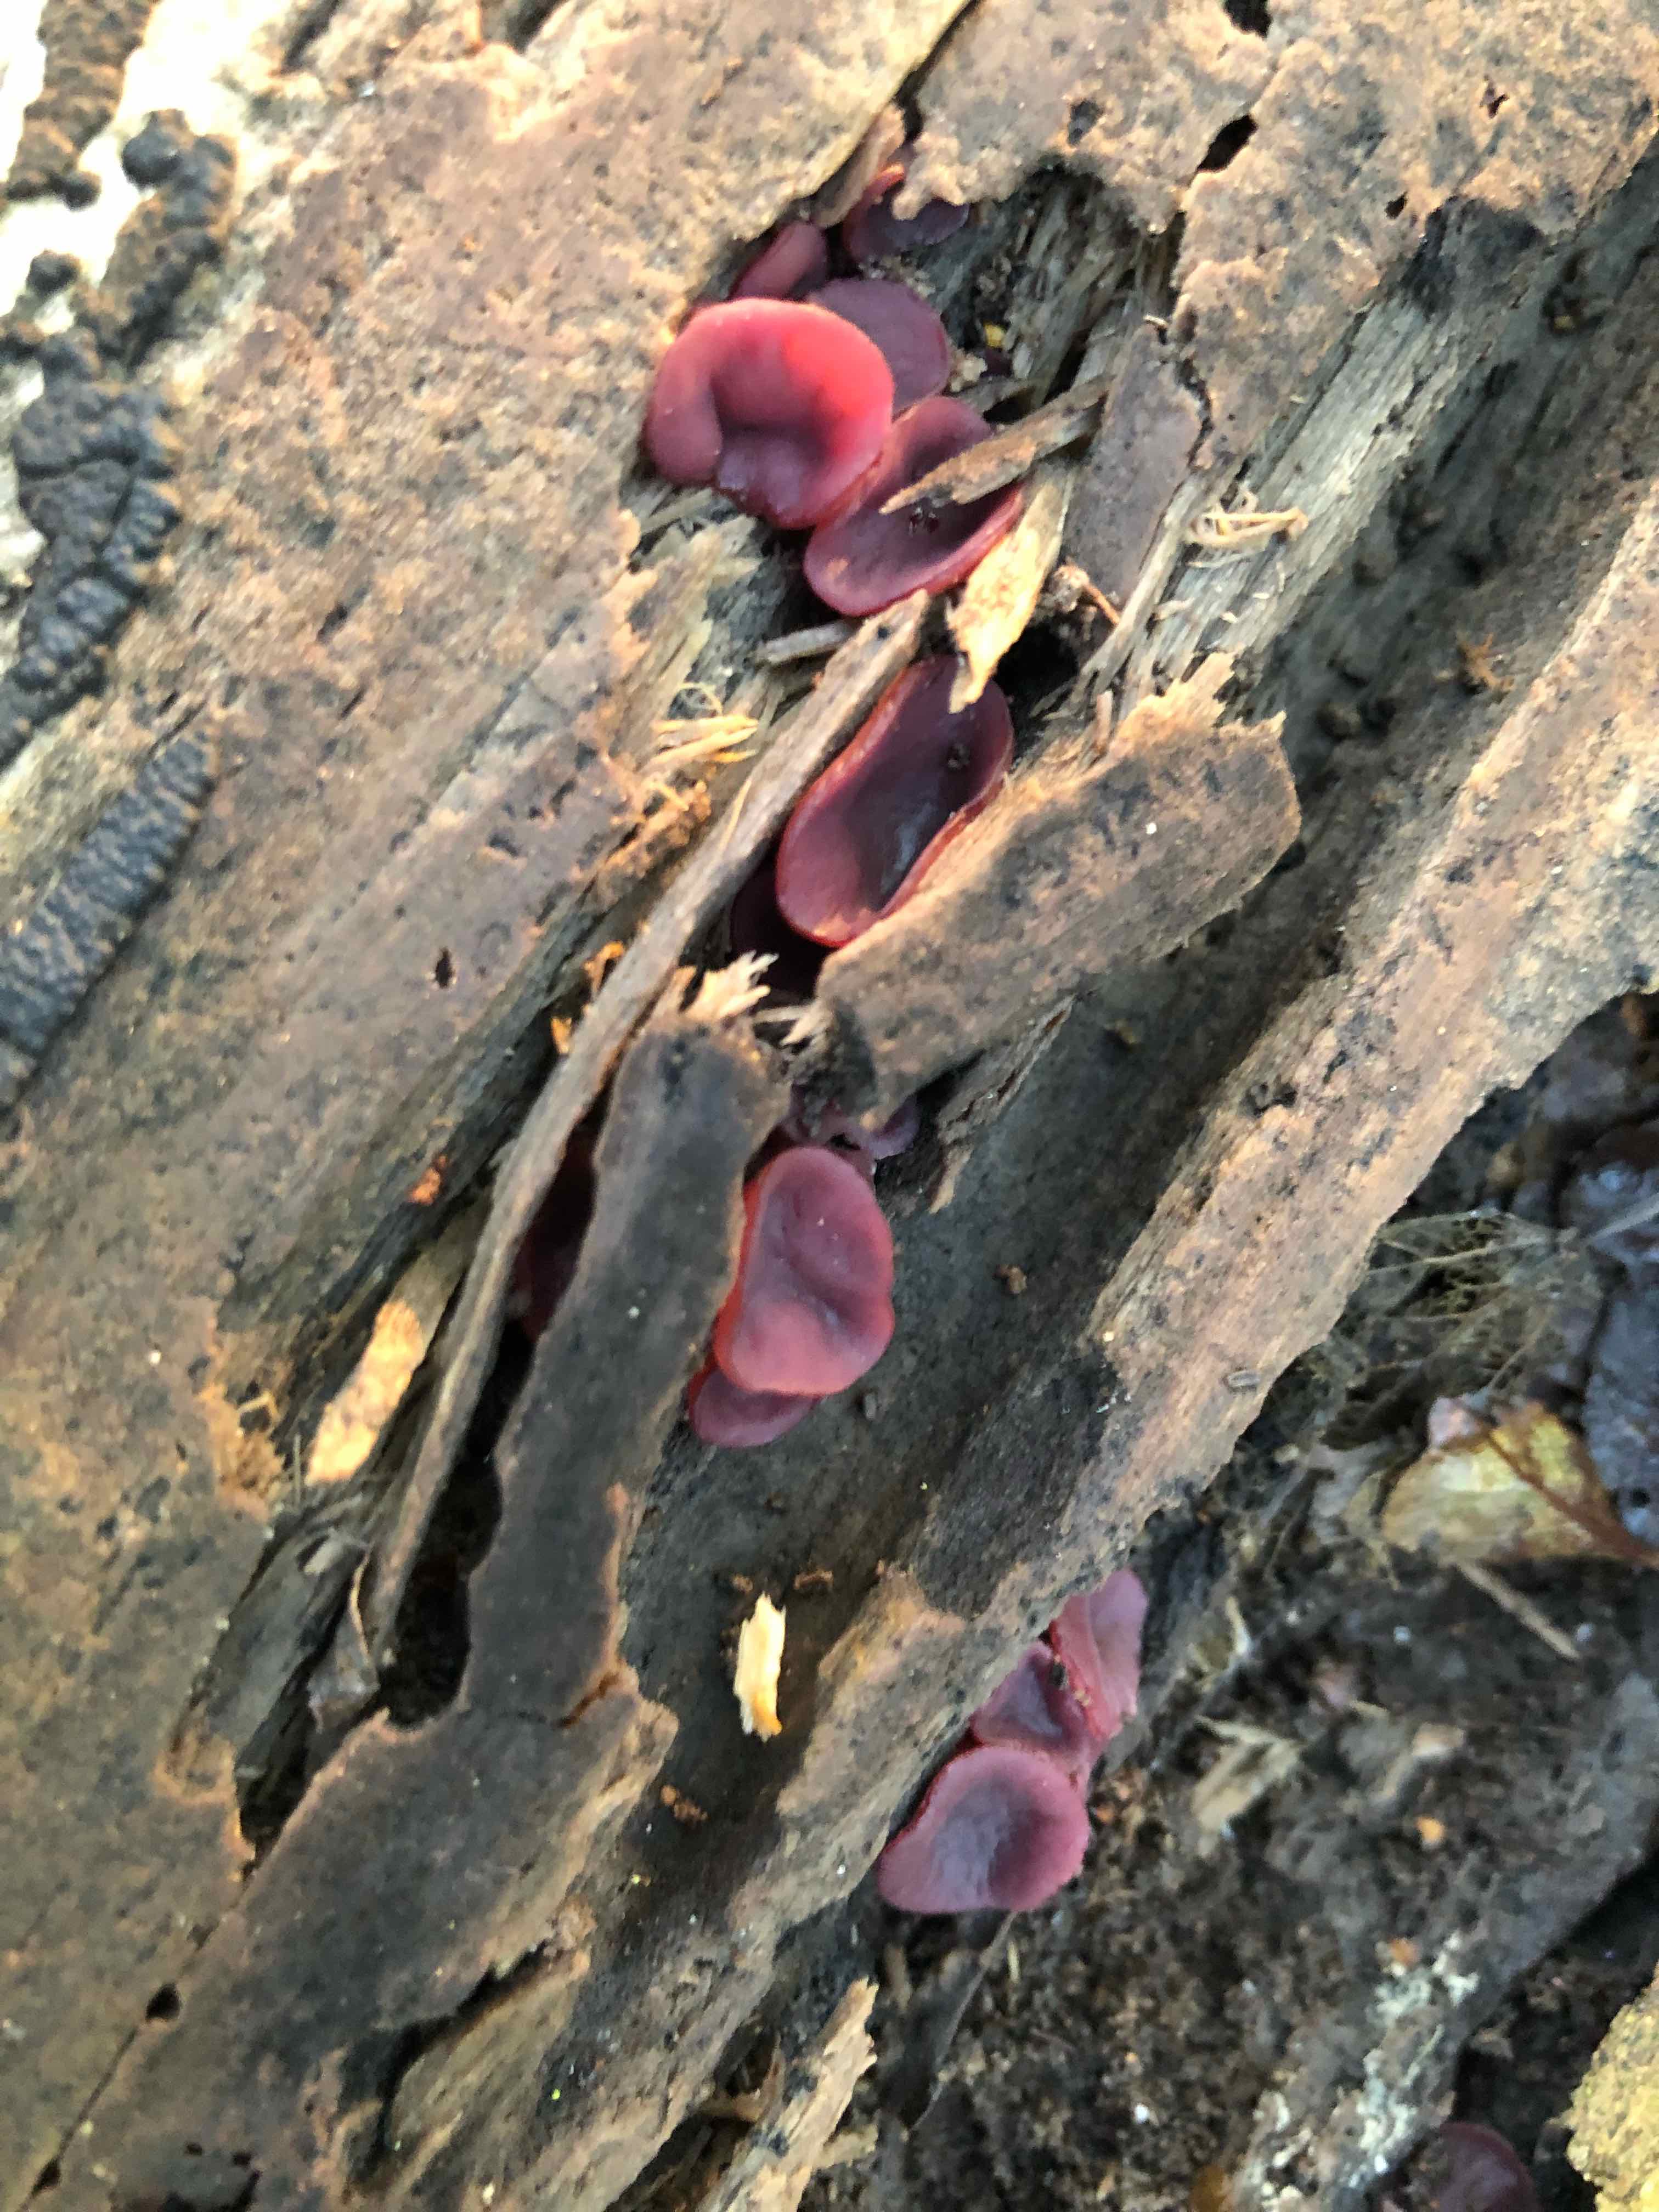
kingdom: Fungi
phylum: Ascomycota
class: Leotiomycetes
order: Helotiales
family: Gelatinodiscaceae
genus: Ascocoryne
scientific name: Ascocoryne cylichnium
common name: stor sejskive
